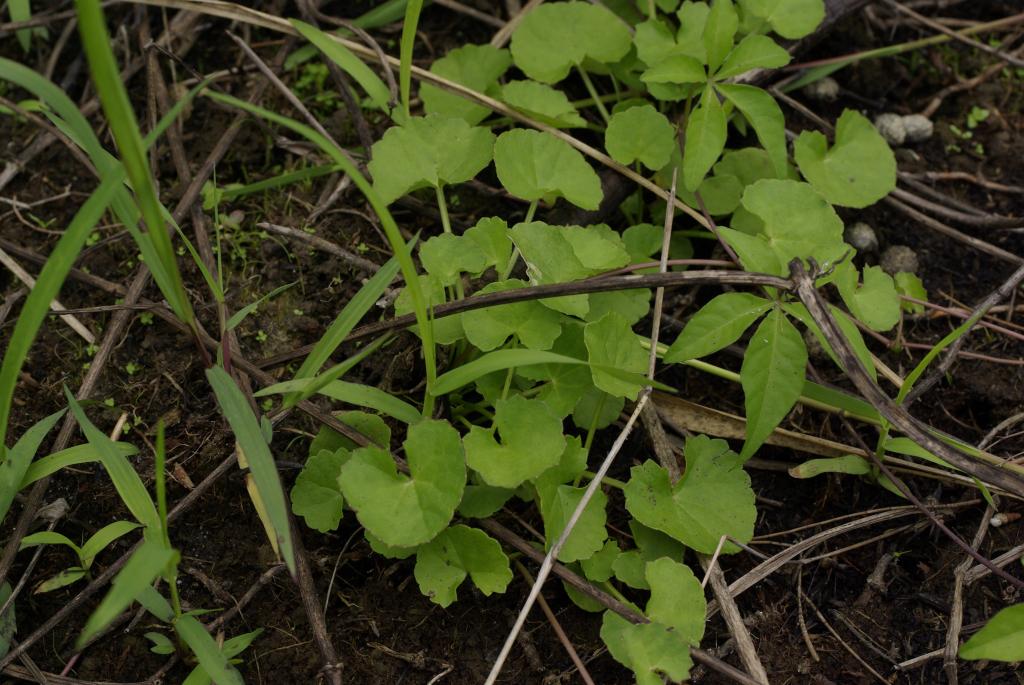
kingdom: Plantae
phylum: Tracheophyta
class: Magnoliopsida
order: Apiales
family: Apiaceae
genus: Centella
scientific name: Centella asiatica
